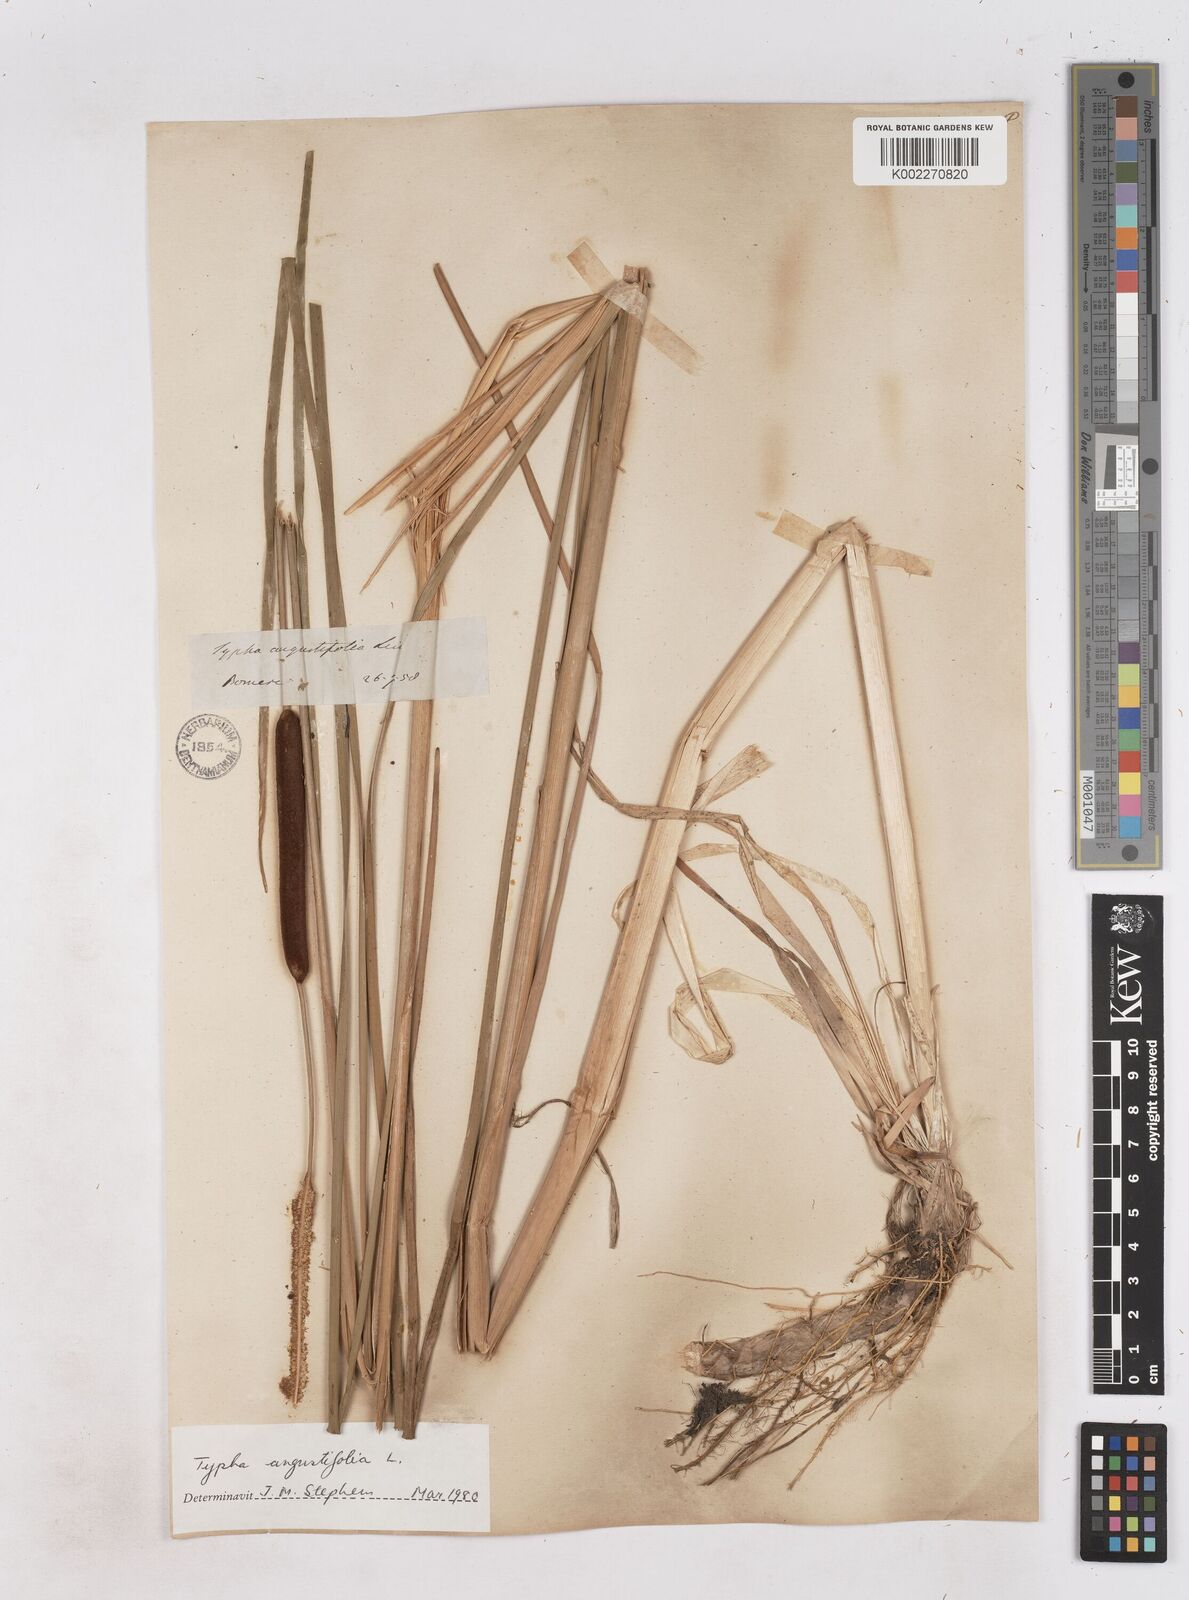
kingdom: Plantae
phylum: Tracheophyta
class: Liliopsida
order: Poales
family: Typhaceae
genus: Typha
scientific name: Typha angustifolia
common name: Lesser bulrush
